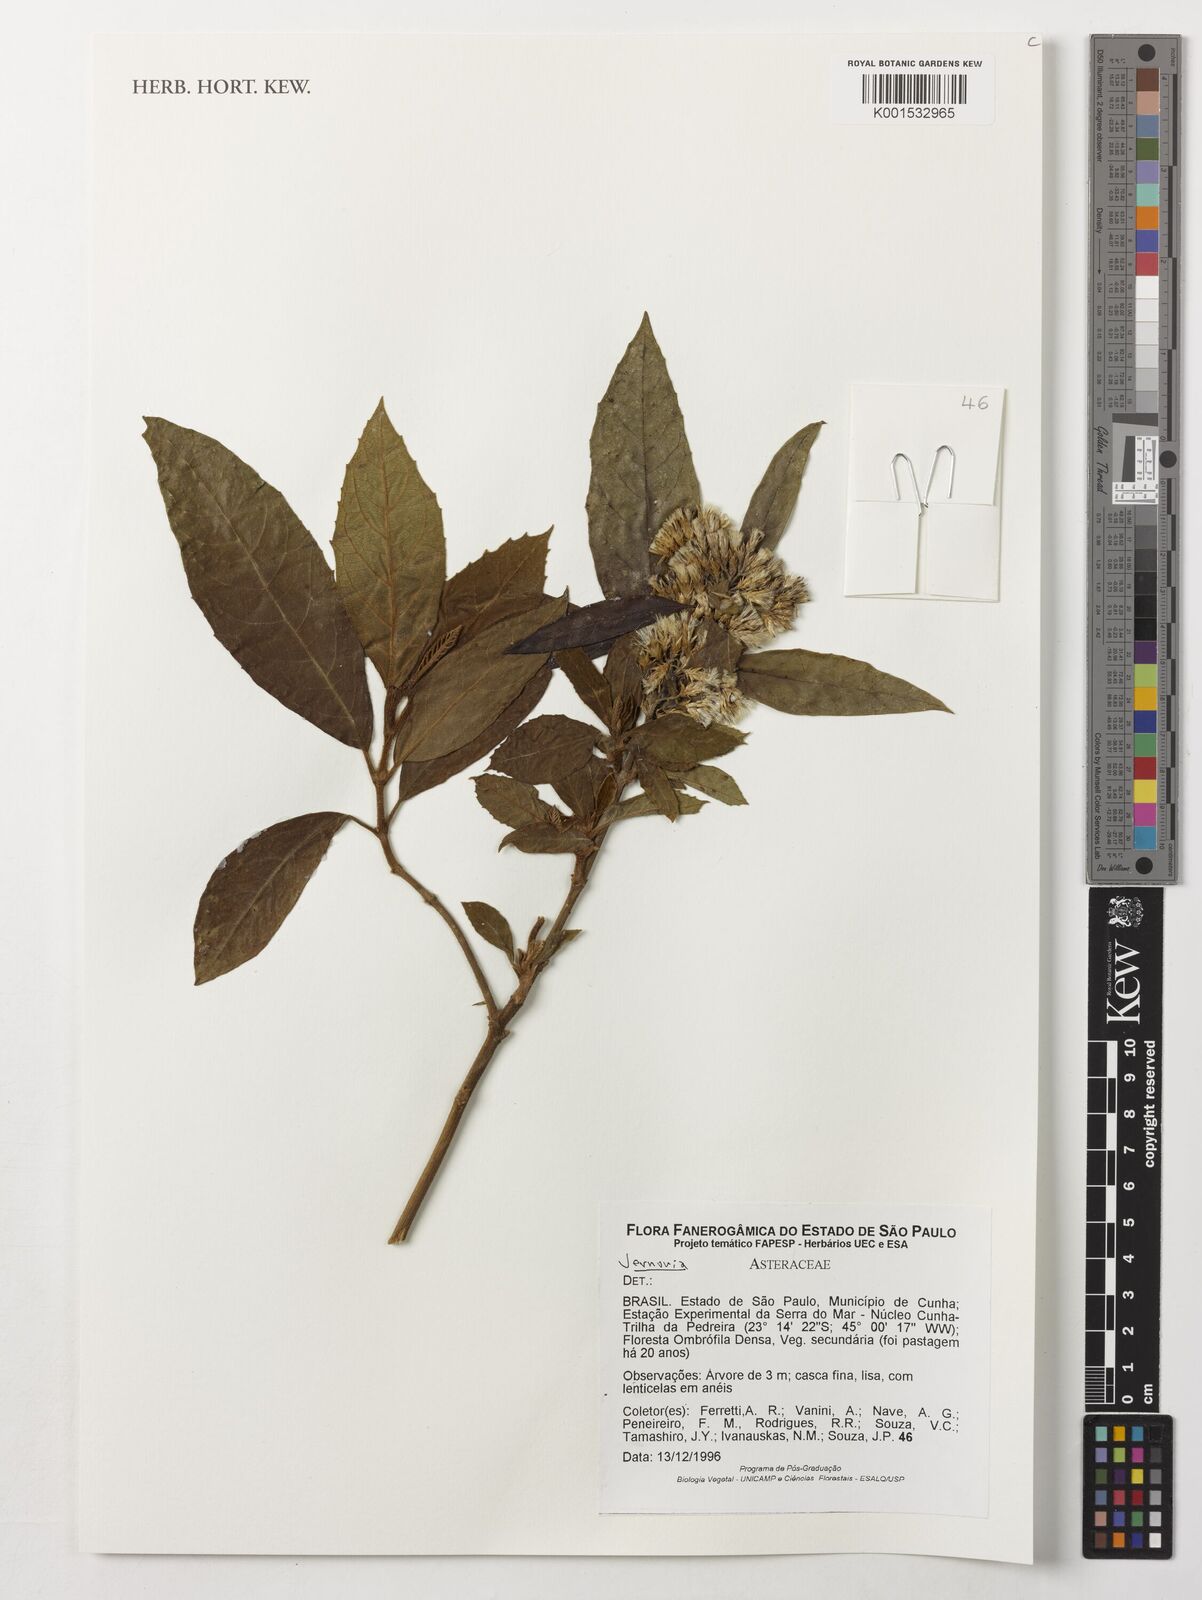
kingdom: Plantae
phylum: Tracheophyta
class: Magnoliopsida
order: Asterales
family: Asteraceae
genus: Vernonia
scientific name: Vernonia
